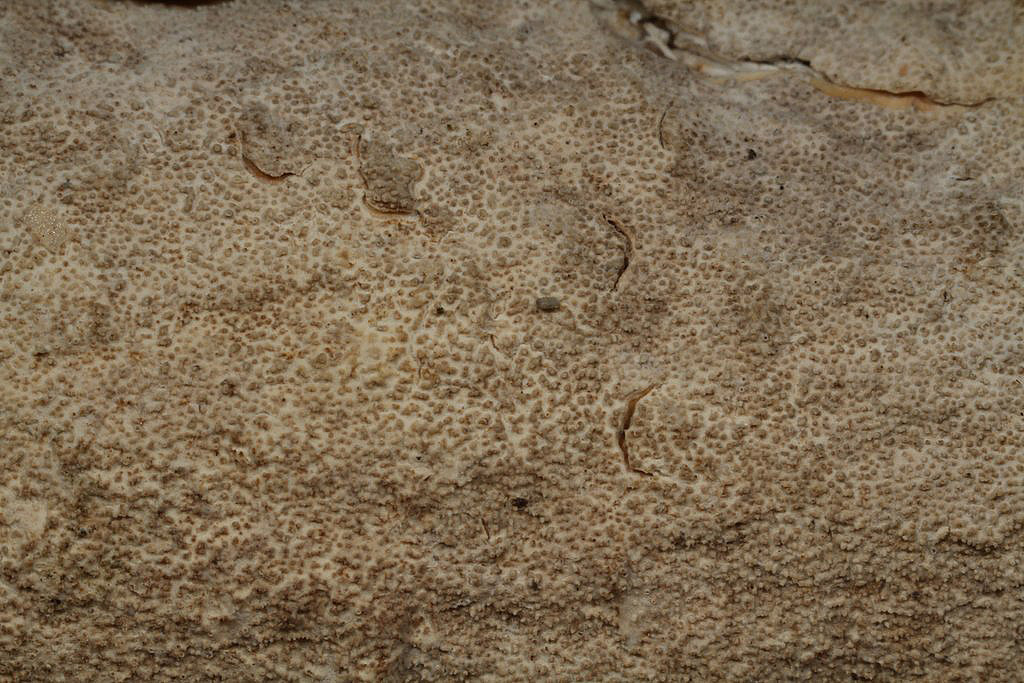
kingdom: Fungi
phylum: Basidiomycota
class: Agaricomycetes
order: Hymenochaetales
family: Rickenellaceae
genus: Resinicium
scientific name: Resinicium bicolor
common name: almindelig vokstand
